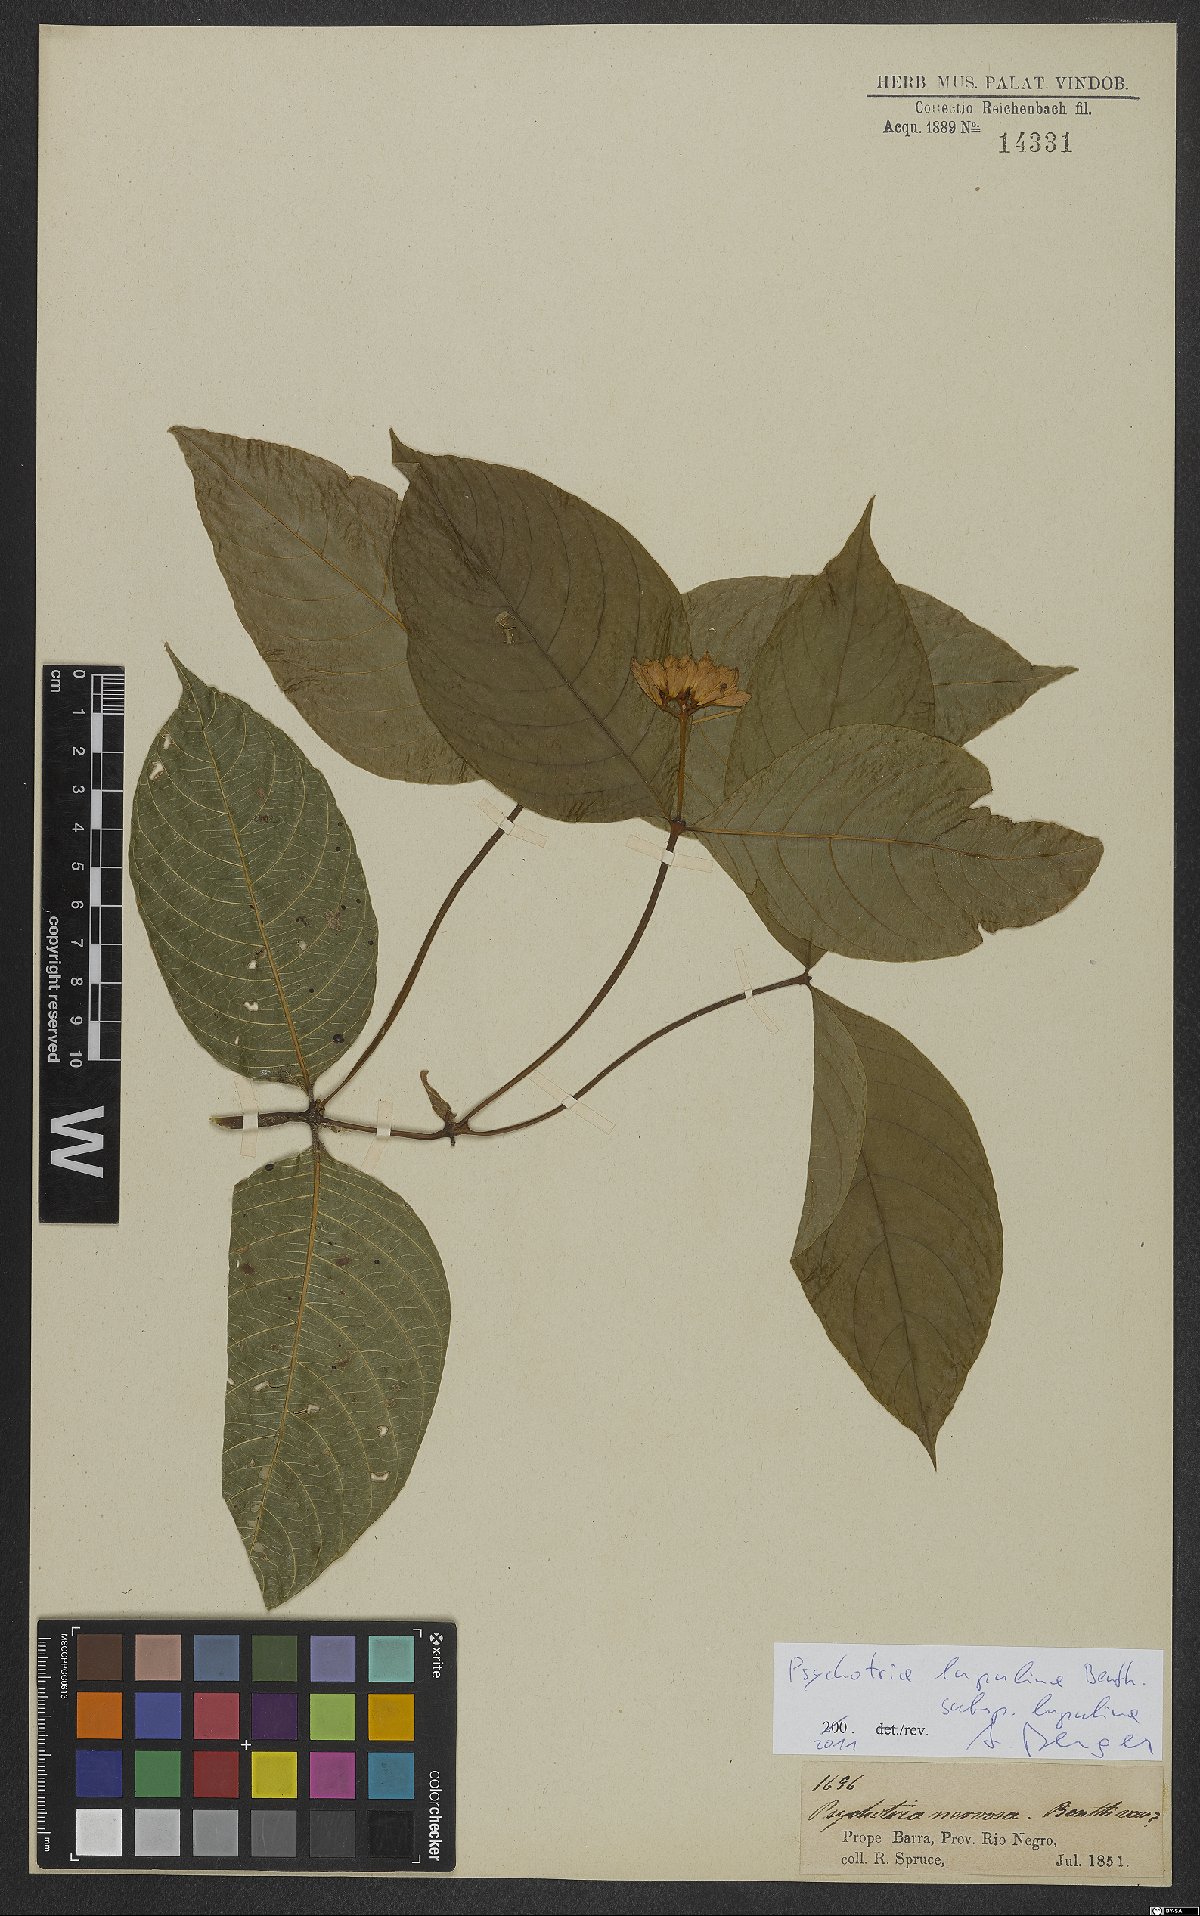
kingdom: Plantae
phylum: Tracheophyta
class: Magnoliopsida
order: Gentianales
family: Rubiaceae
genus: Palicourea
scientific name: Palicourea justiciifolia
